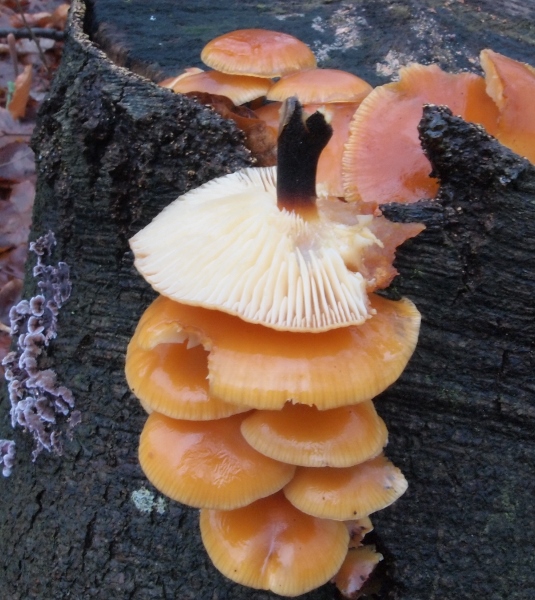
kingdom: Fungi
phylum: Basidiomycota
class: Agaricomycetes
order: Agaricales
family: Physalacriaceae
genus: Flammulina
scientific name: Flammulina velutipes
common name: gul fløjlsfod
